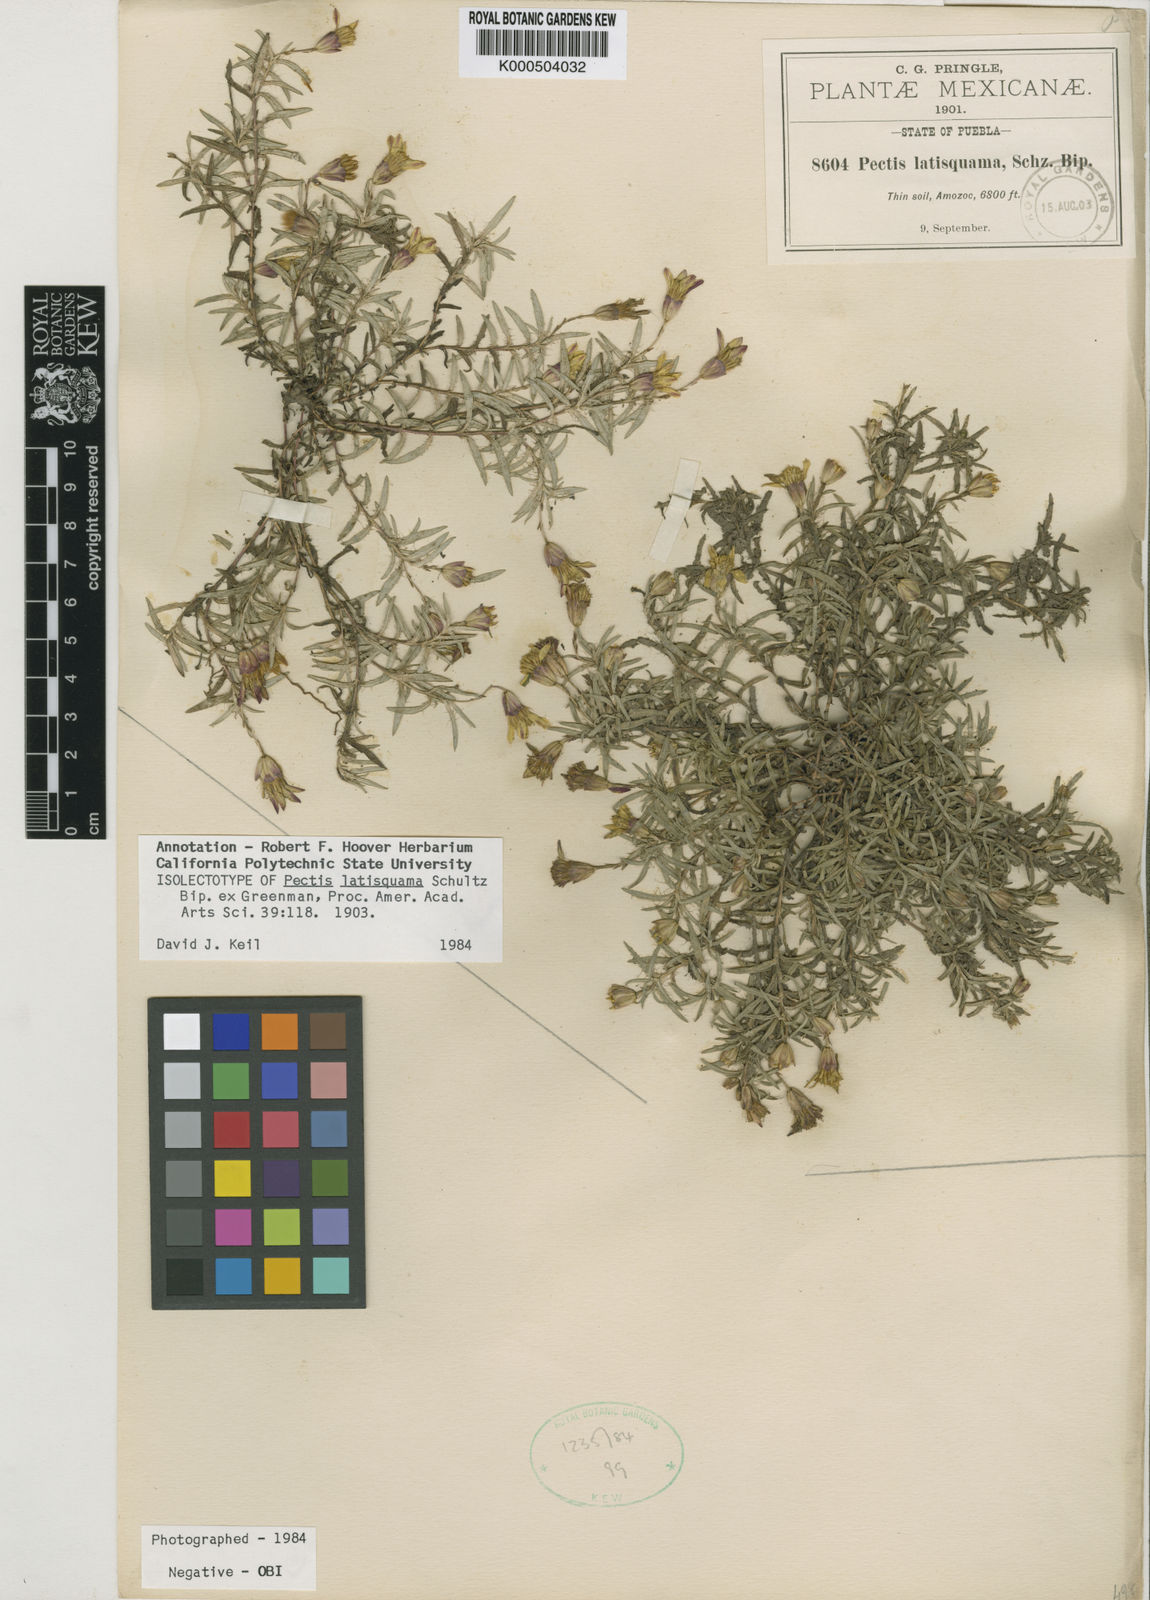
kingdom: Plantae
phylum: Tracheophyta
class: Magnoliopsida
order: Asterales
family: Asteraceae
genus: Pectis
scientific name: Pectis latisquama
